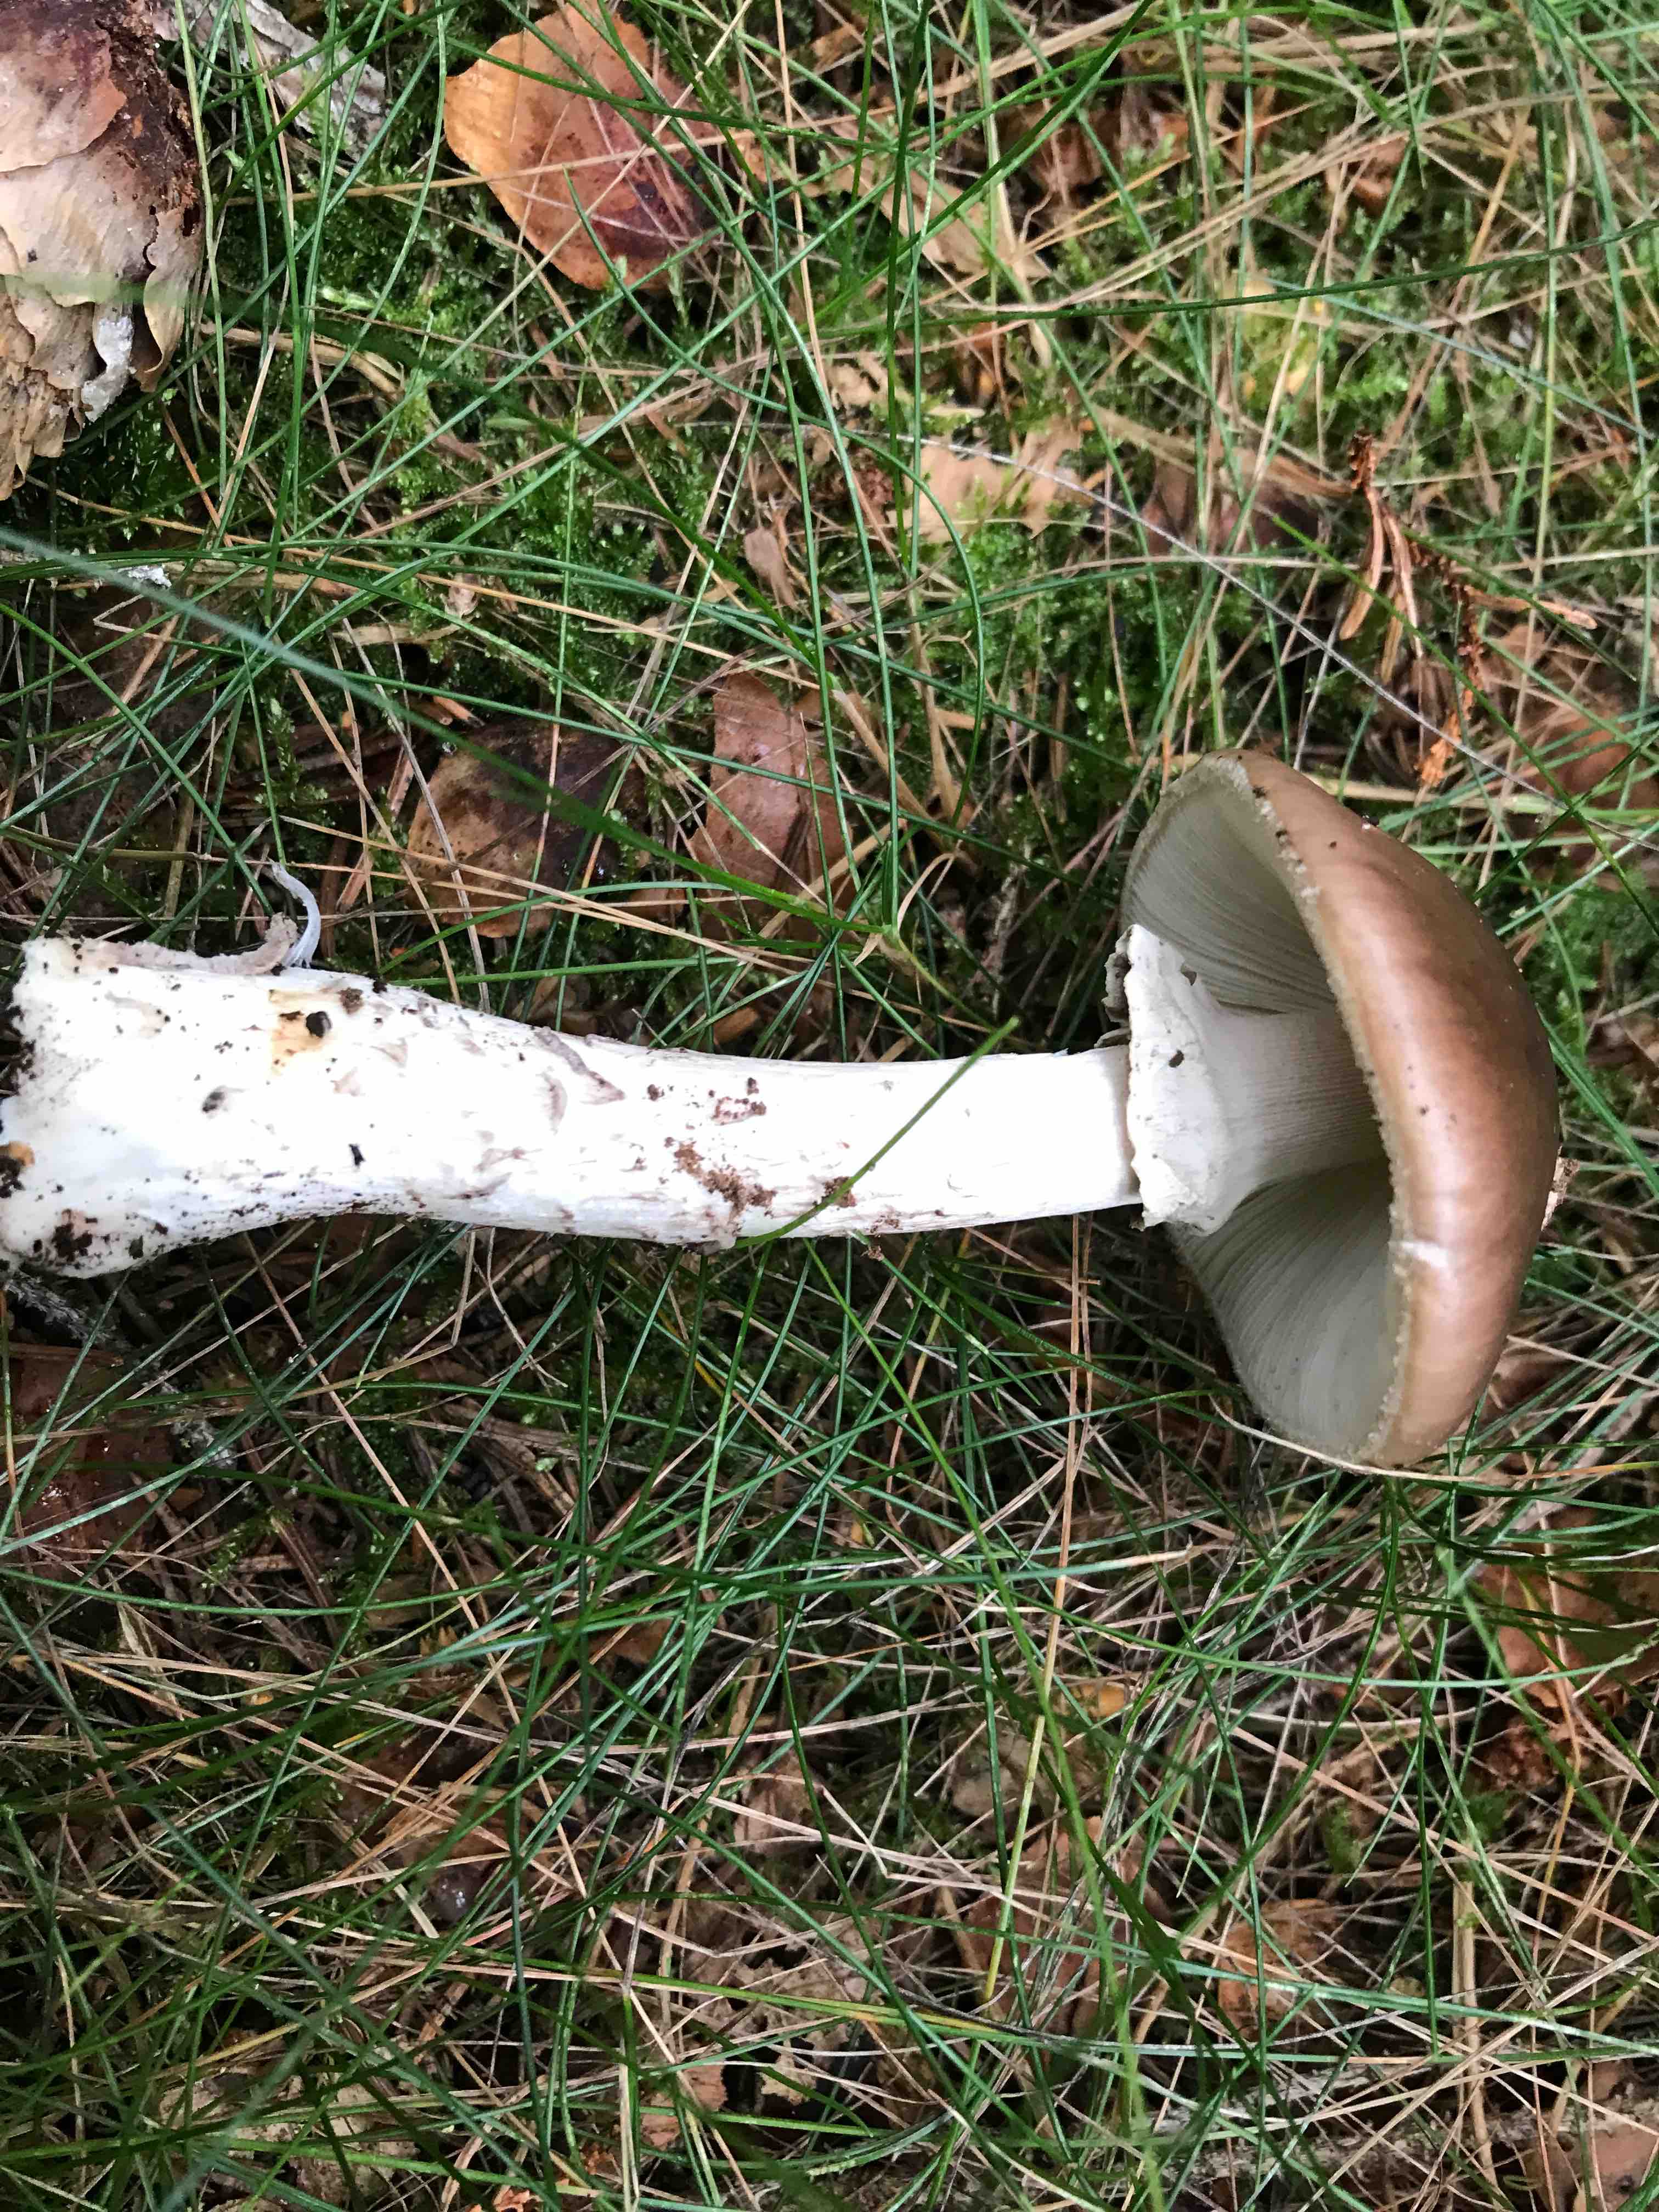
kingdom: Fungi
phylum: Basidiomycota
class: Agaricomycetes
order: Agaricales
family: Amanitaceae
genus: Amanita
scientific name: Amanita porphyria
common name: porfyr-fluesvamp
